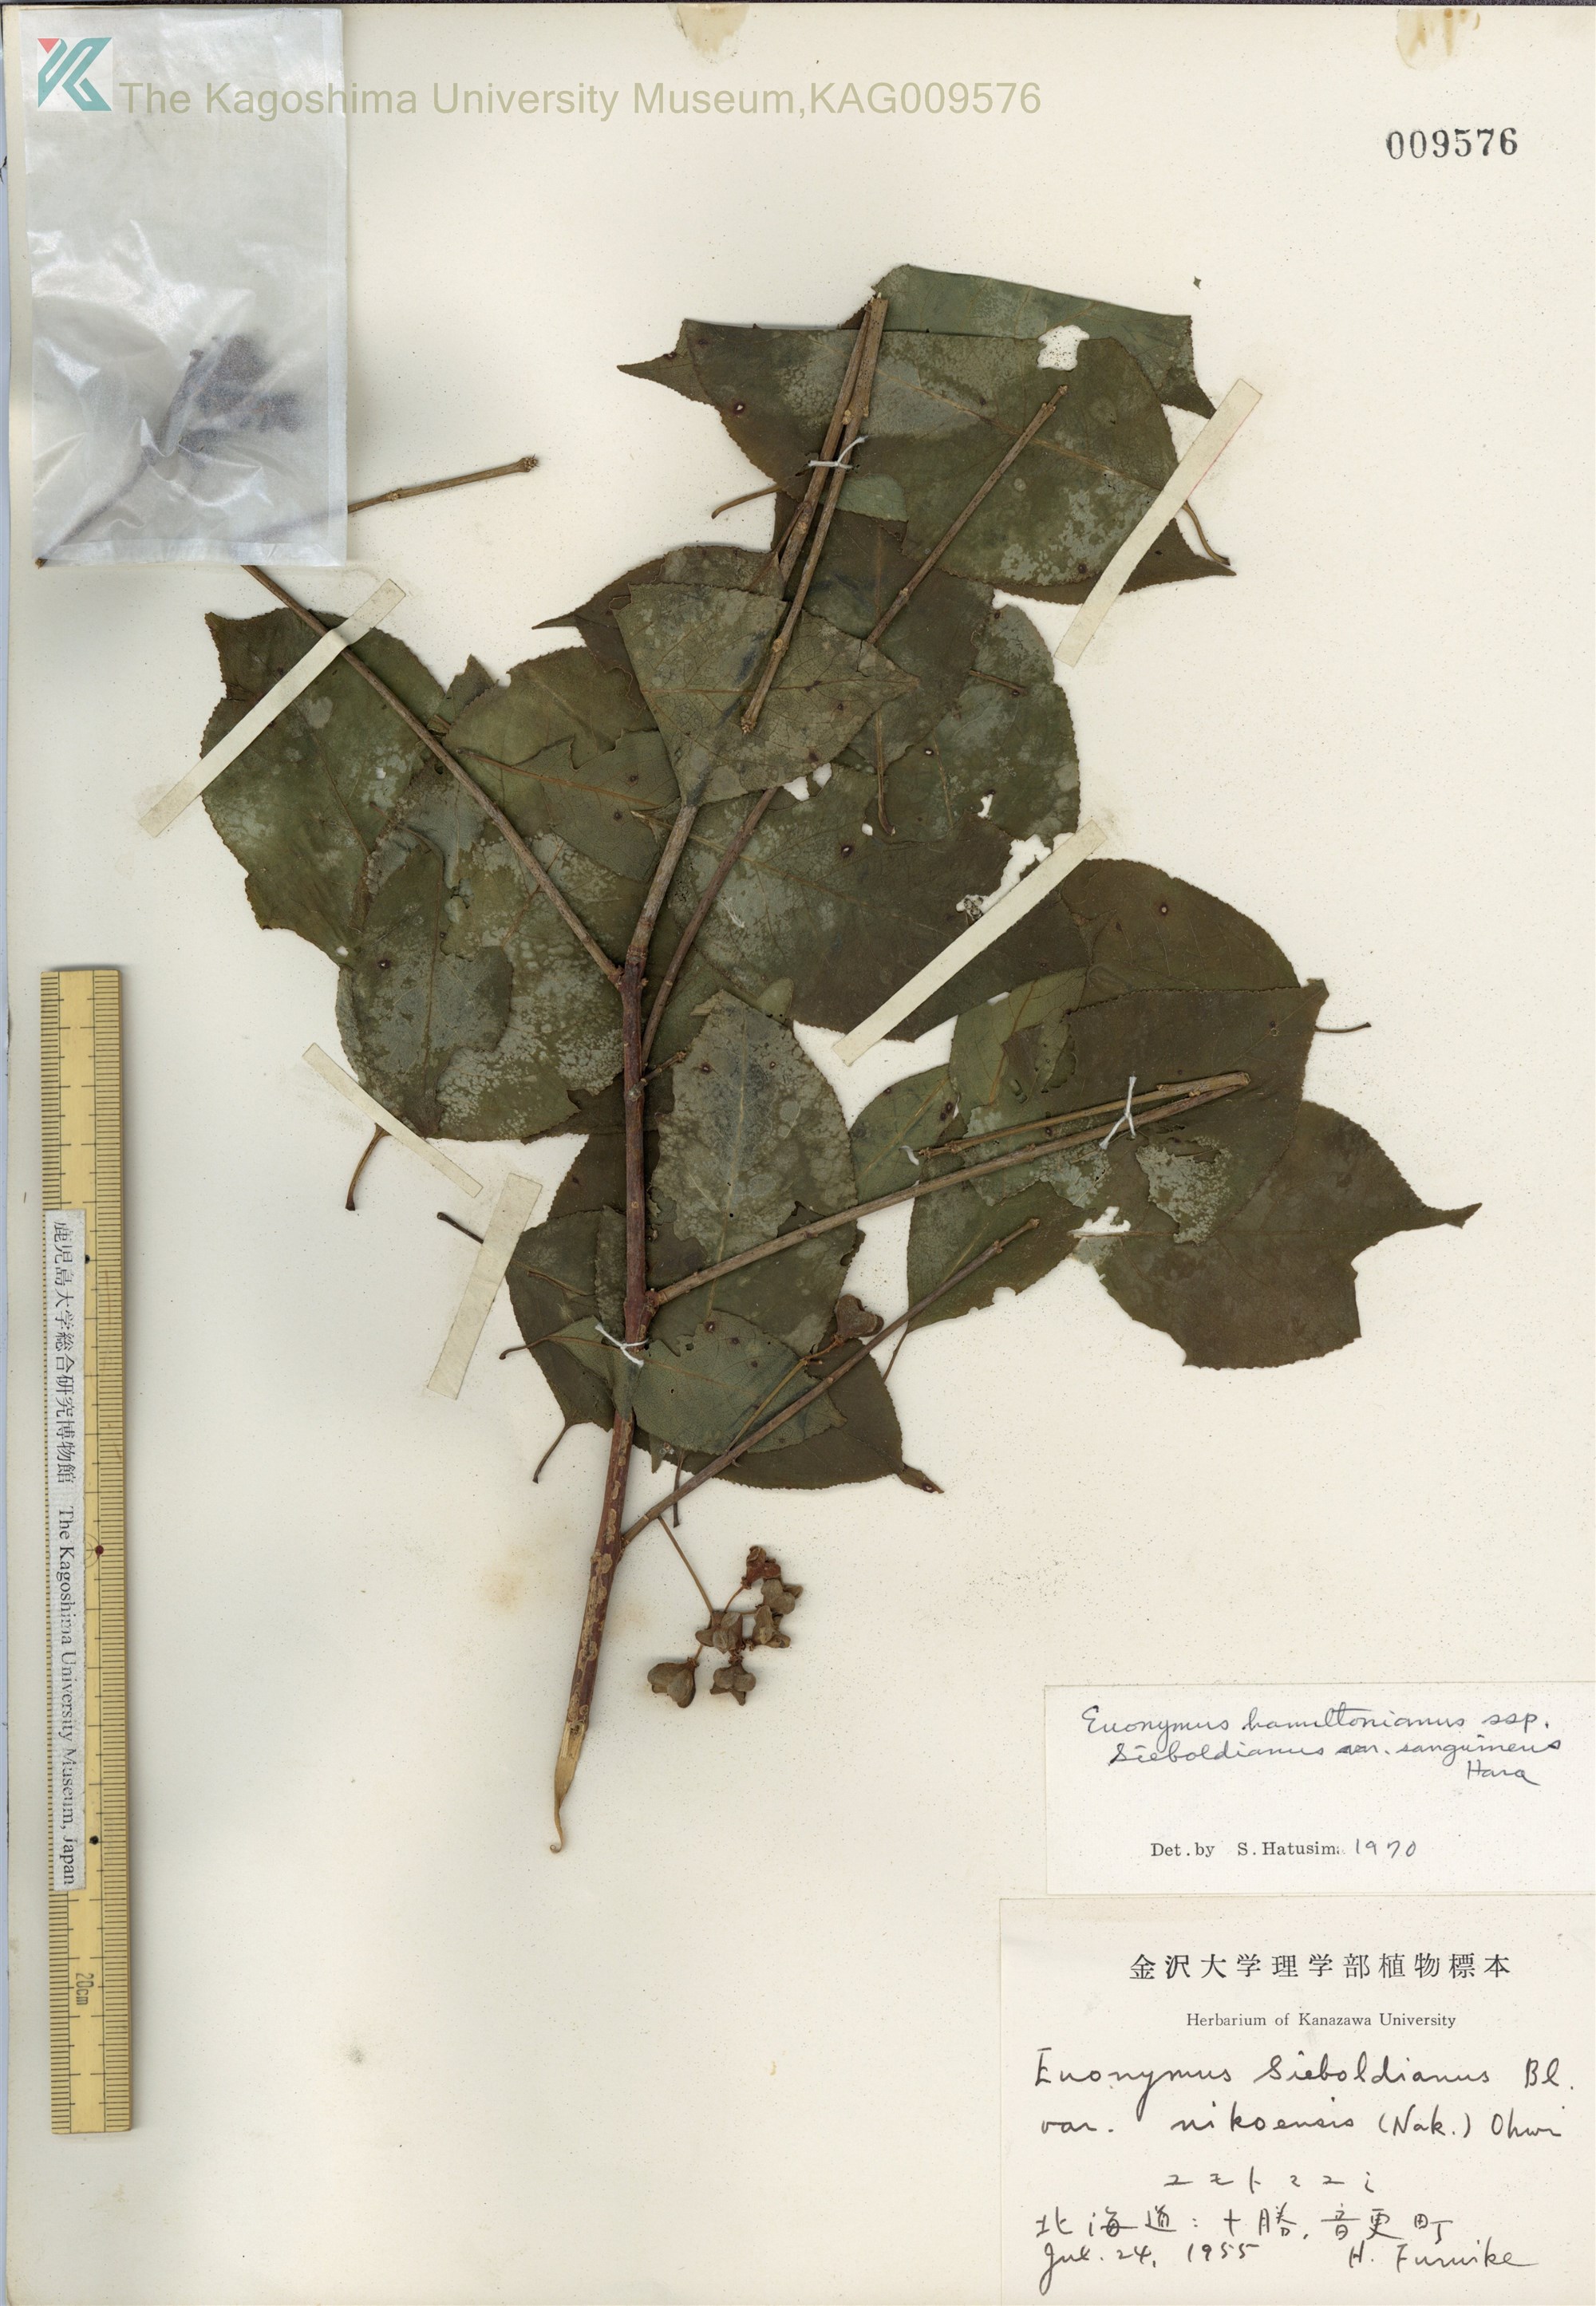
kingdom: Plantae
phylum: Tracheophyta
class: Magnoliopsida
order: Celastrales
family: Celastraceae
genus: Euonymus
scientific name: Euonymus hamiltonianus
